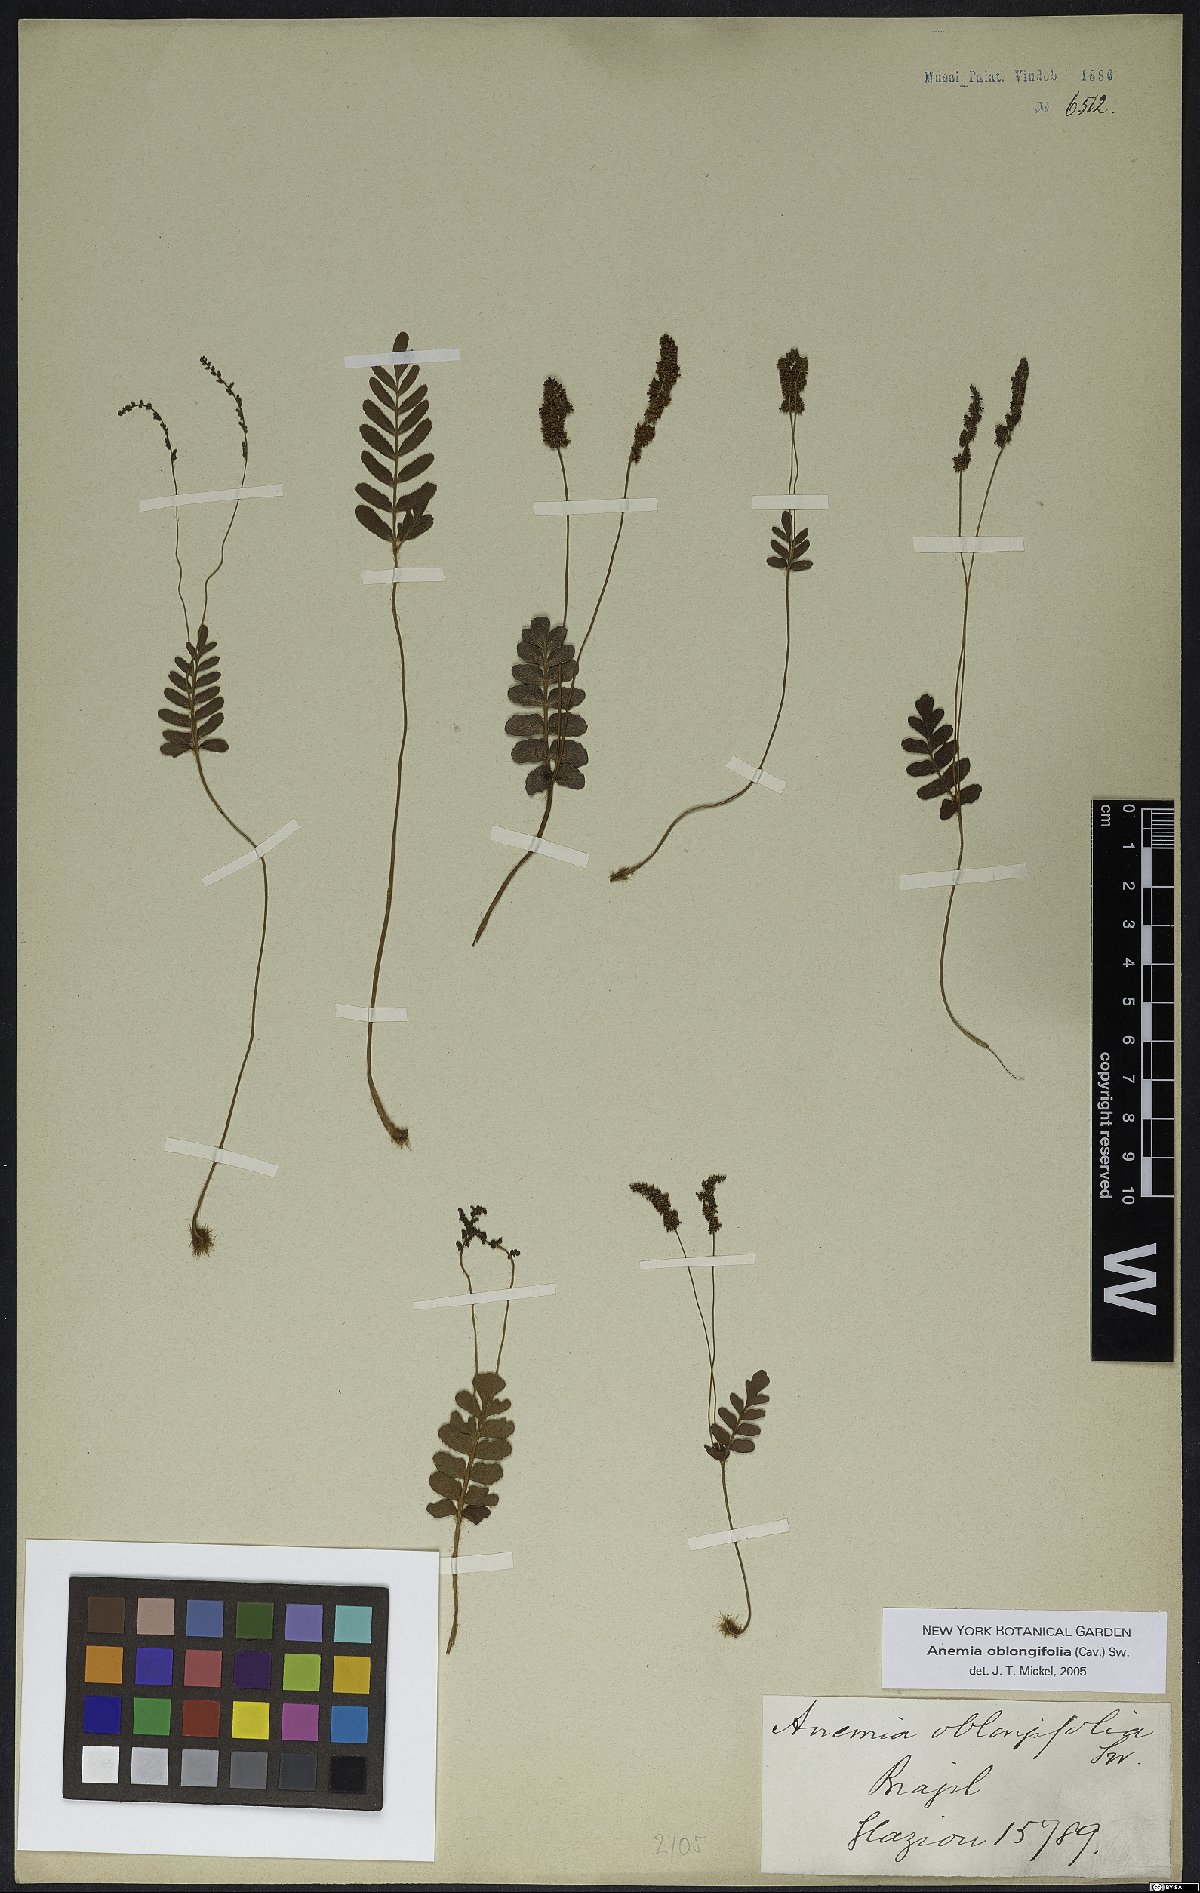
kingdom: Plantae
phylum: Tracheophyta
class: Polypodiopsida
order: Schizaeales
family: Anemiaceae
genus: Anemia
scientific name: Anemia oblongifolia
